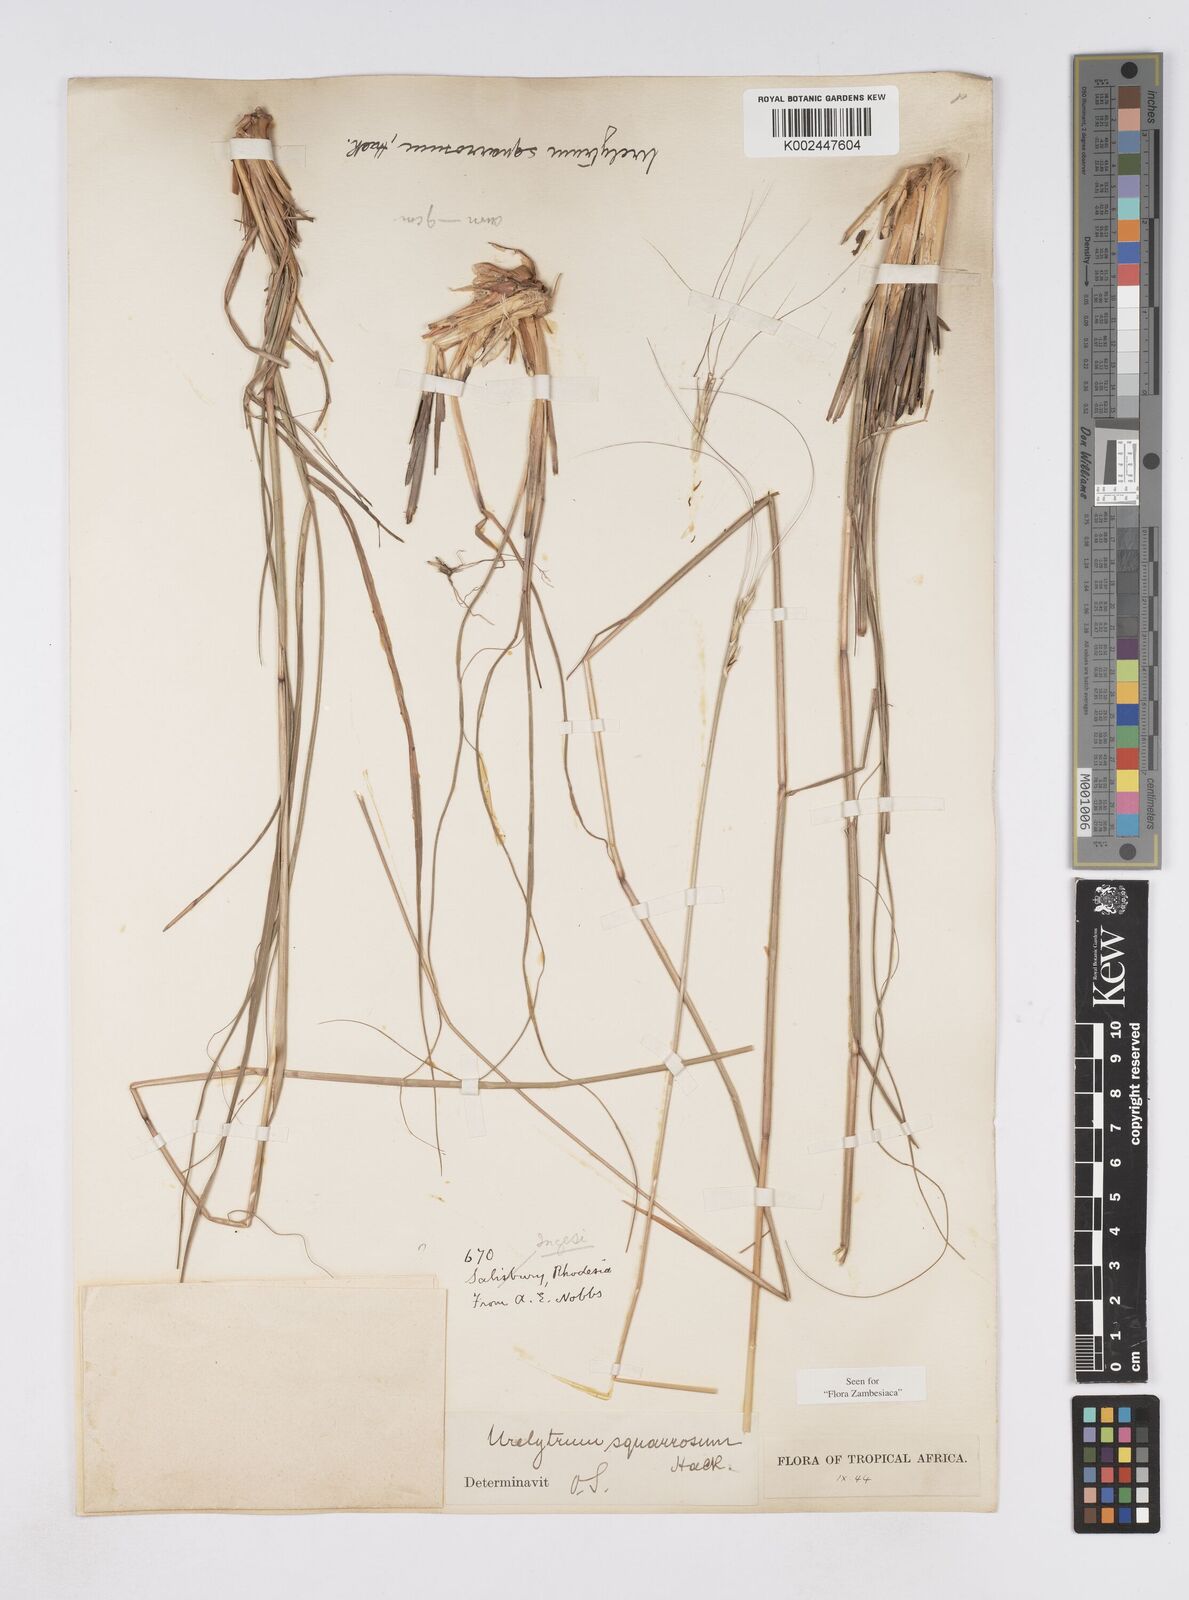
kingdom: Plantae
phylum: Tracheophyta
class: Liliopsida
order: Poales
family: Poaceae
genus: Urelytrum
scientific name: Urelytrum agropyroides
